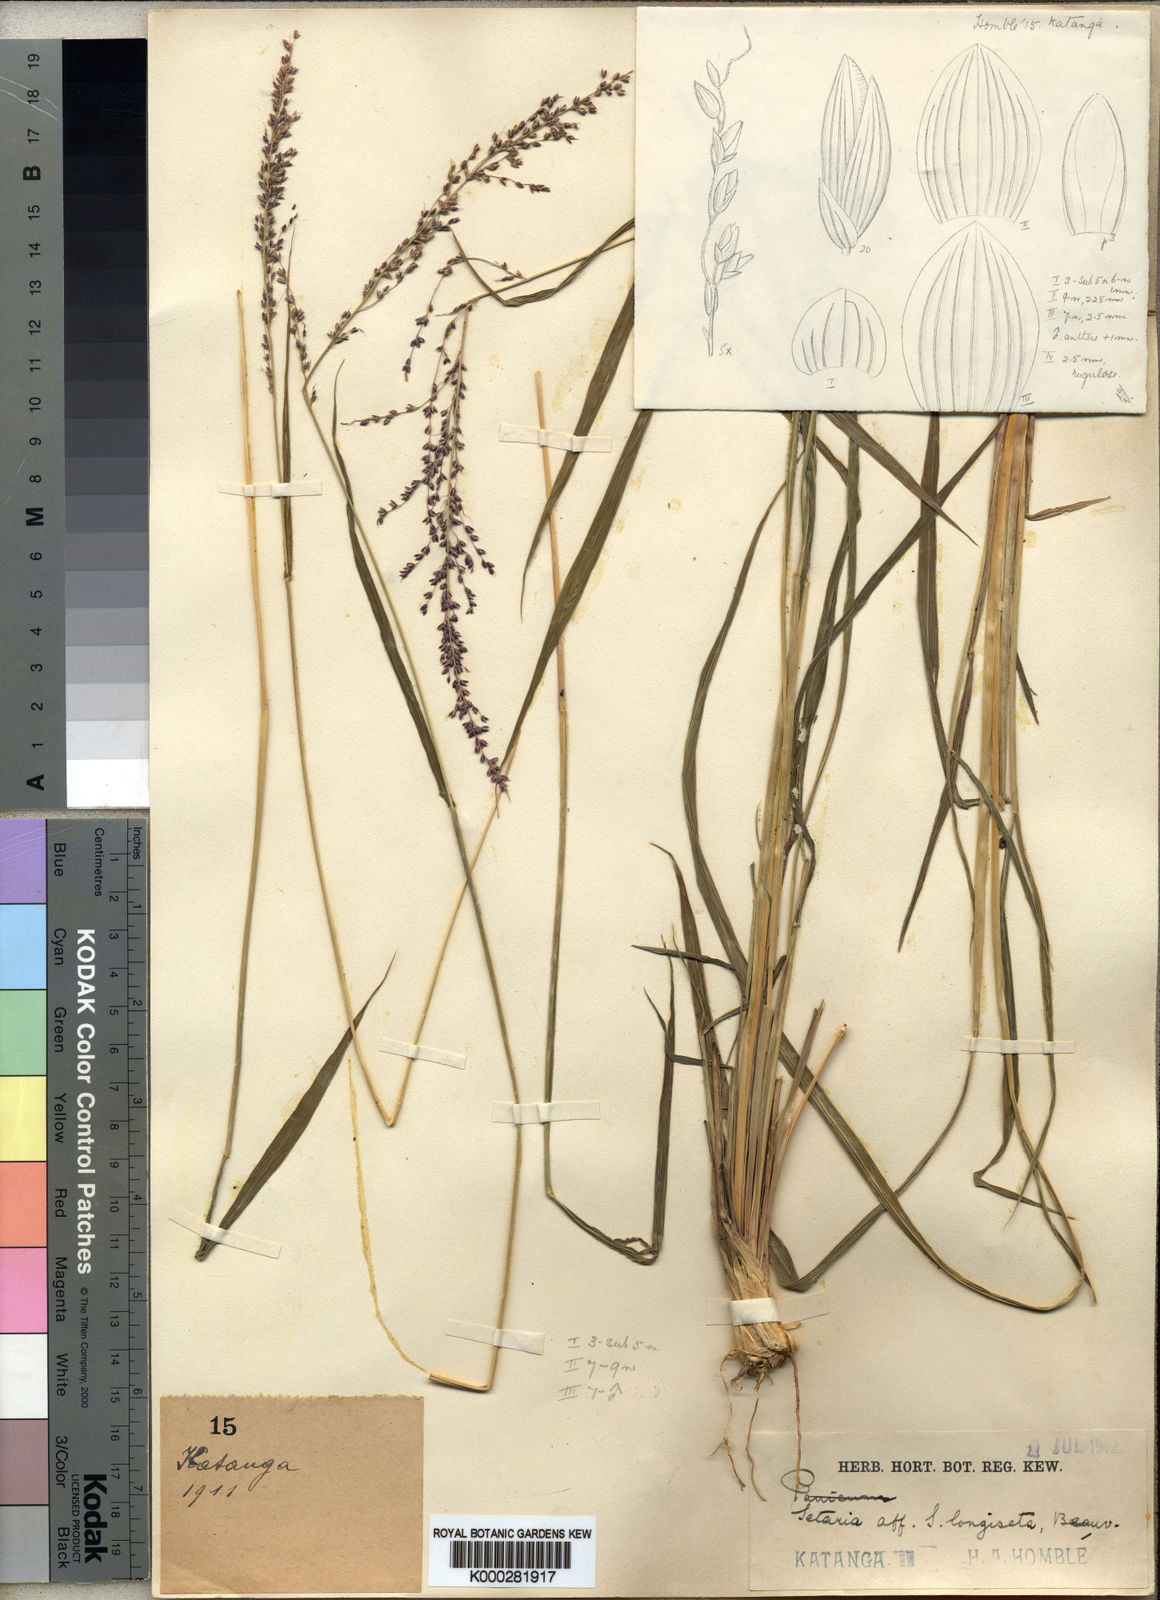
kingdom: Plantae
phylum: Tracheophyta
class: Liliopsida
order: Poales
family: Poaceae
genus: Setaria
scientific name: Setaria lindenbergiana
